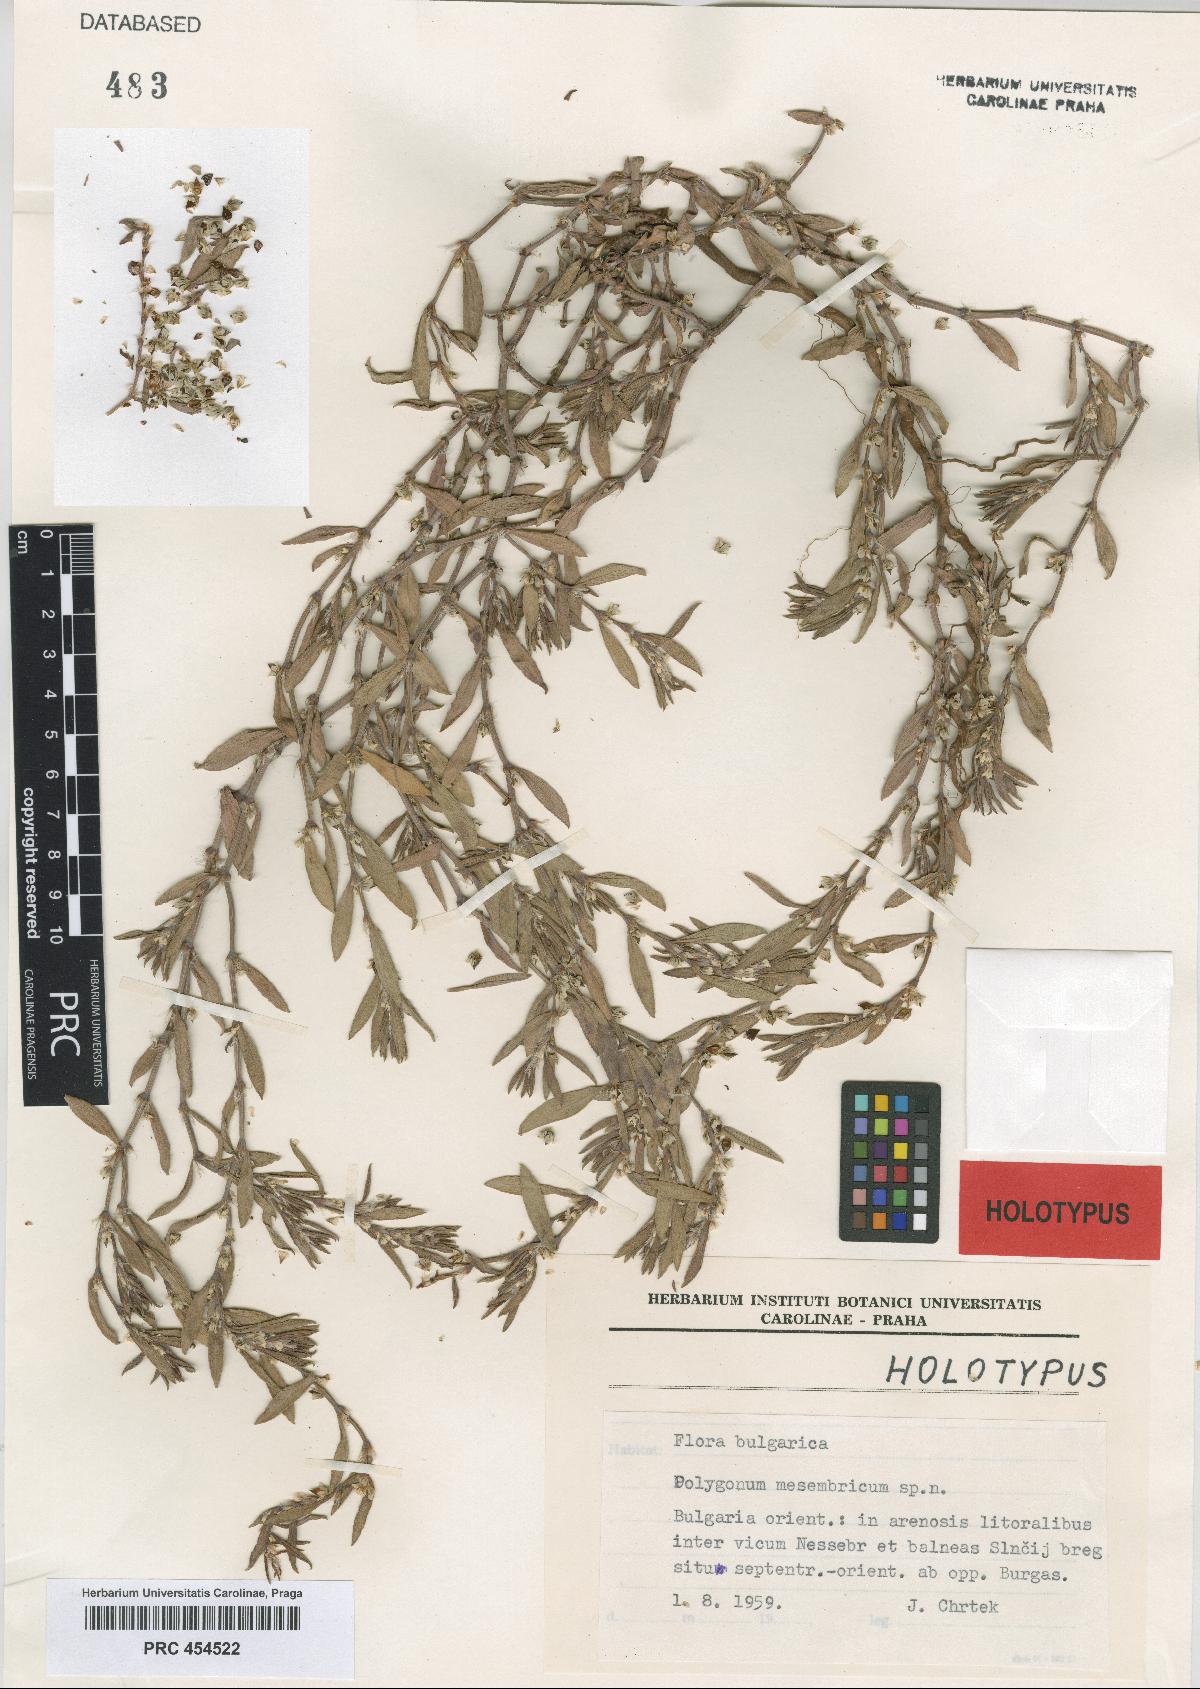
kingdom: Plantae
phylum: Tracheophyta
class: Magnoliopsida
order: Caryophyllales
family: Polygonaceae
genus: Polygonum
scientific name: Polygonum mesembricum
